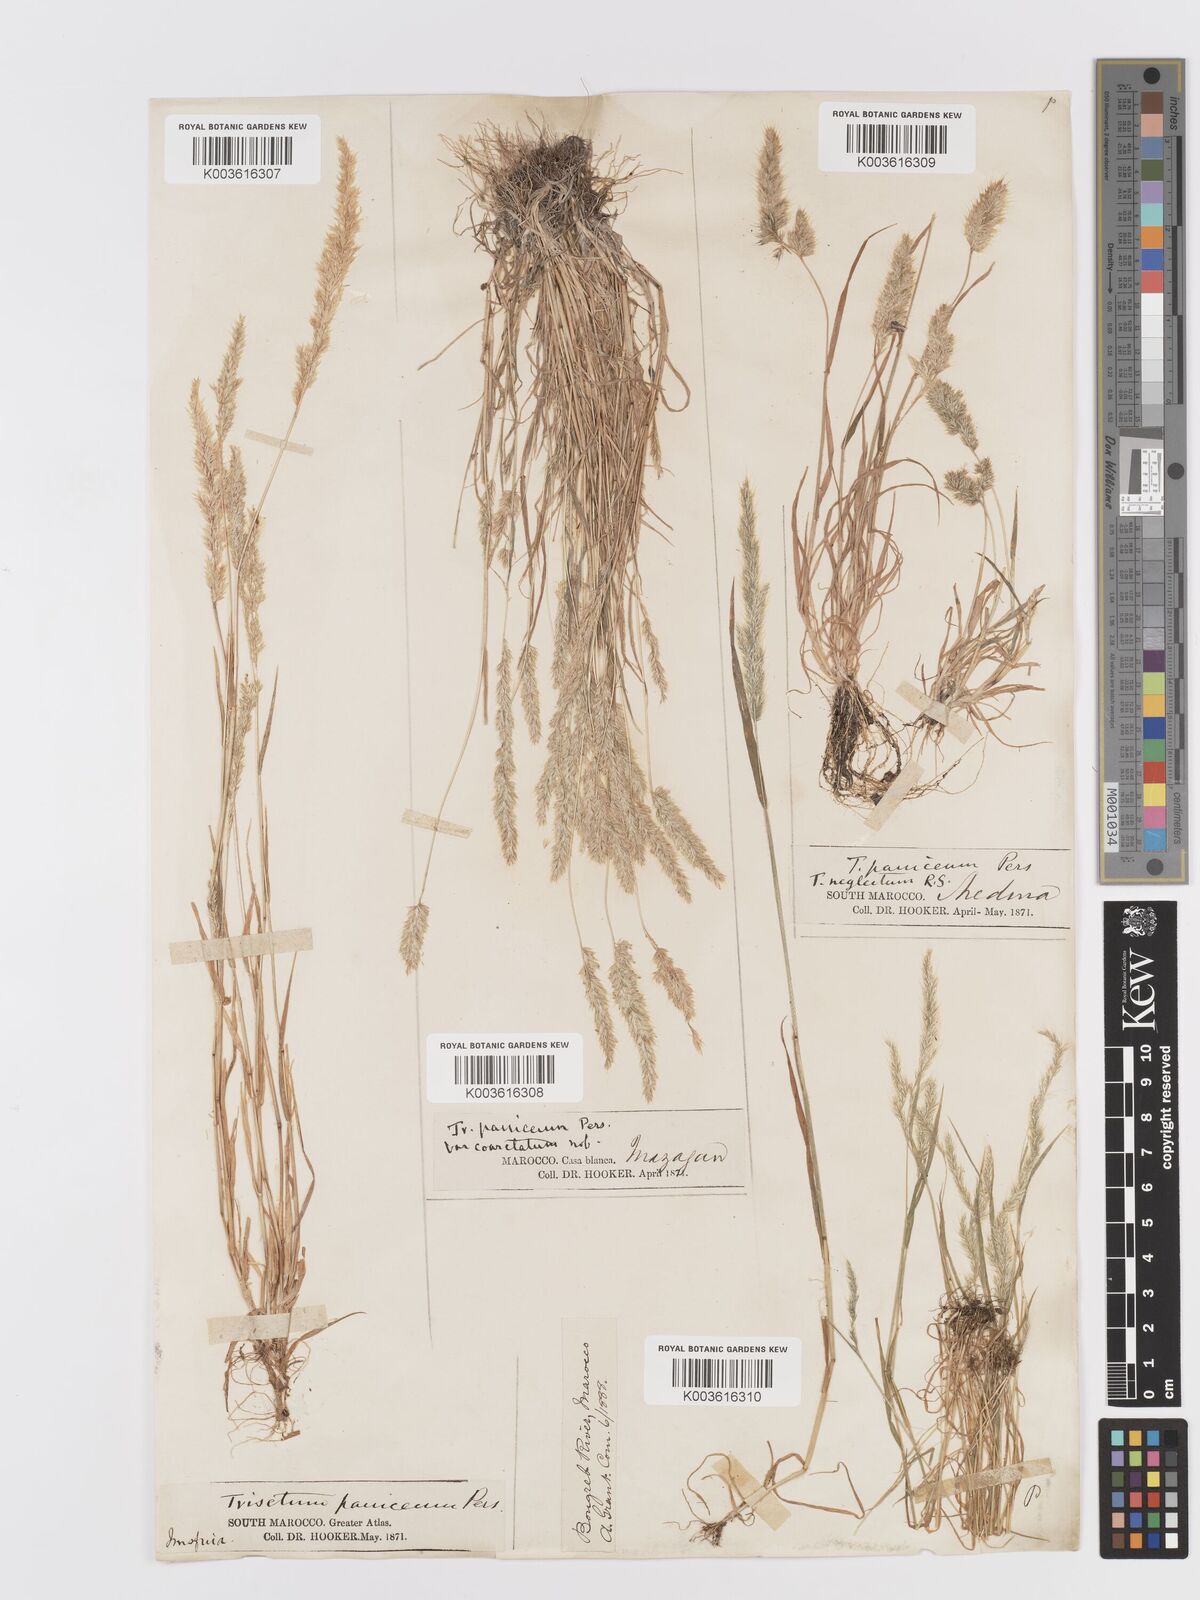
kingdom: Plantae
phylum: Tracheophyta
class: Liliopsida
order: Poales
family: Poaceae
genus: Trisetaria
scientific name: Trisetaria panicea
